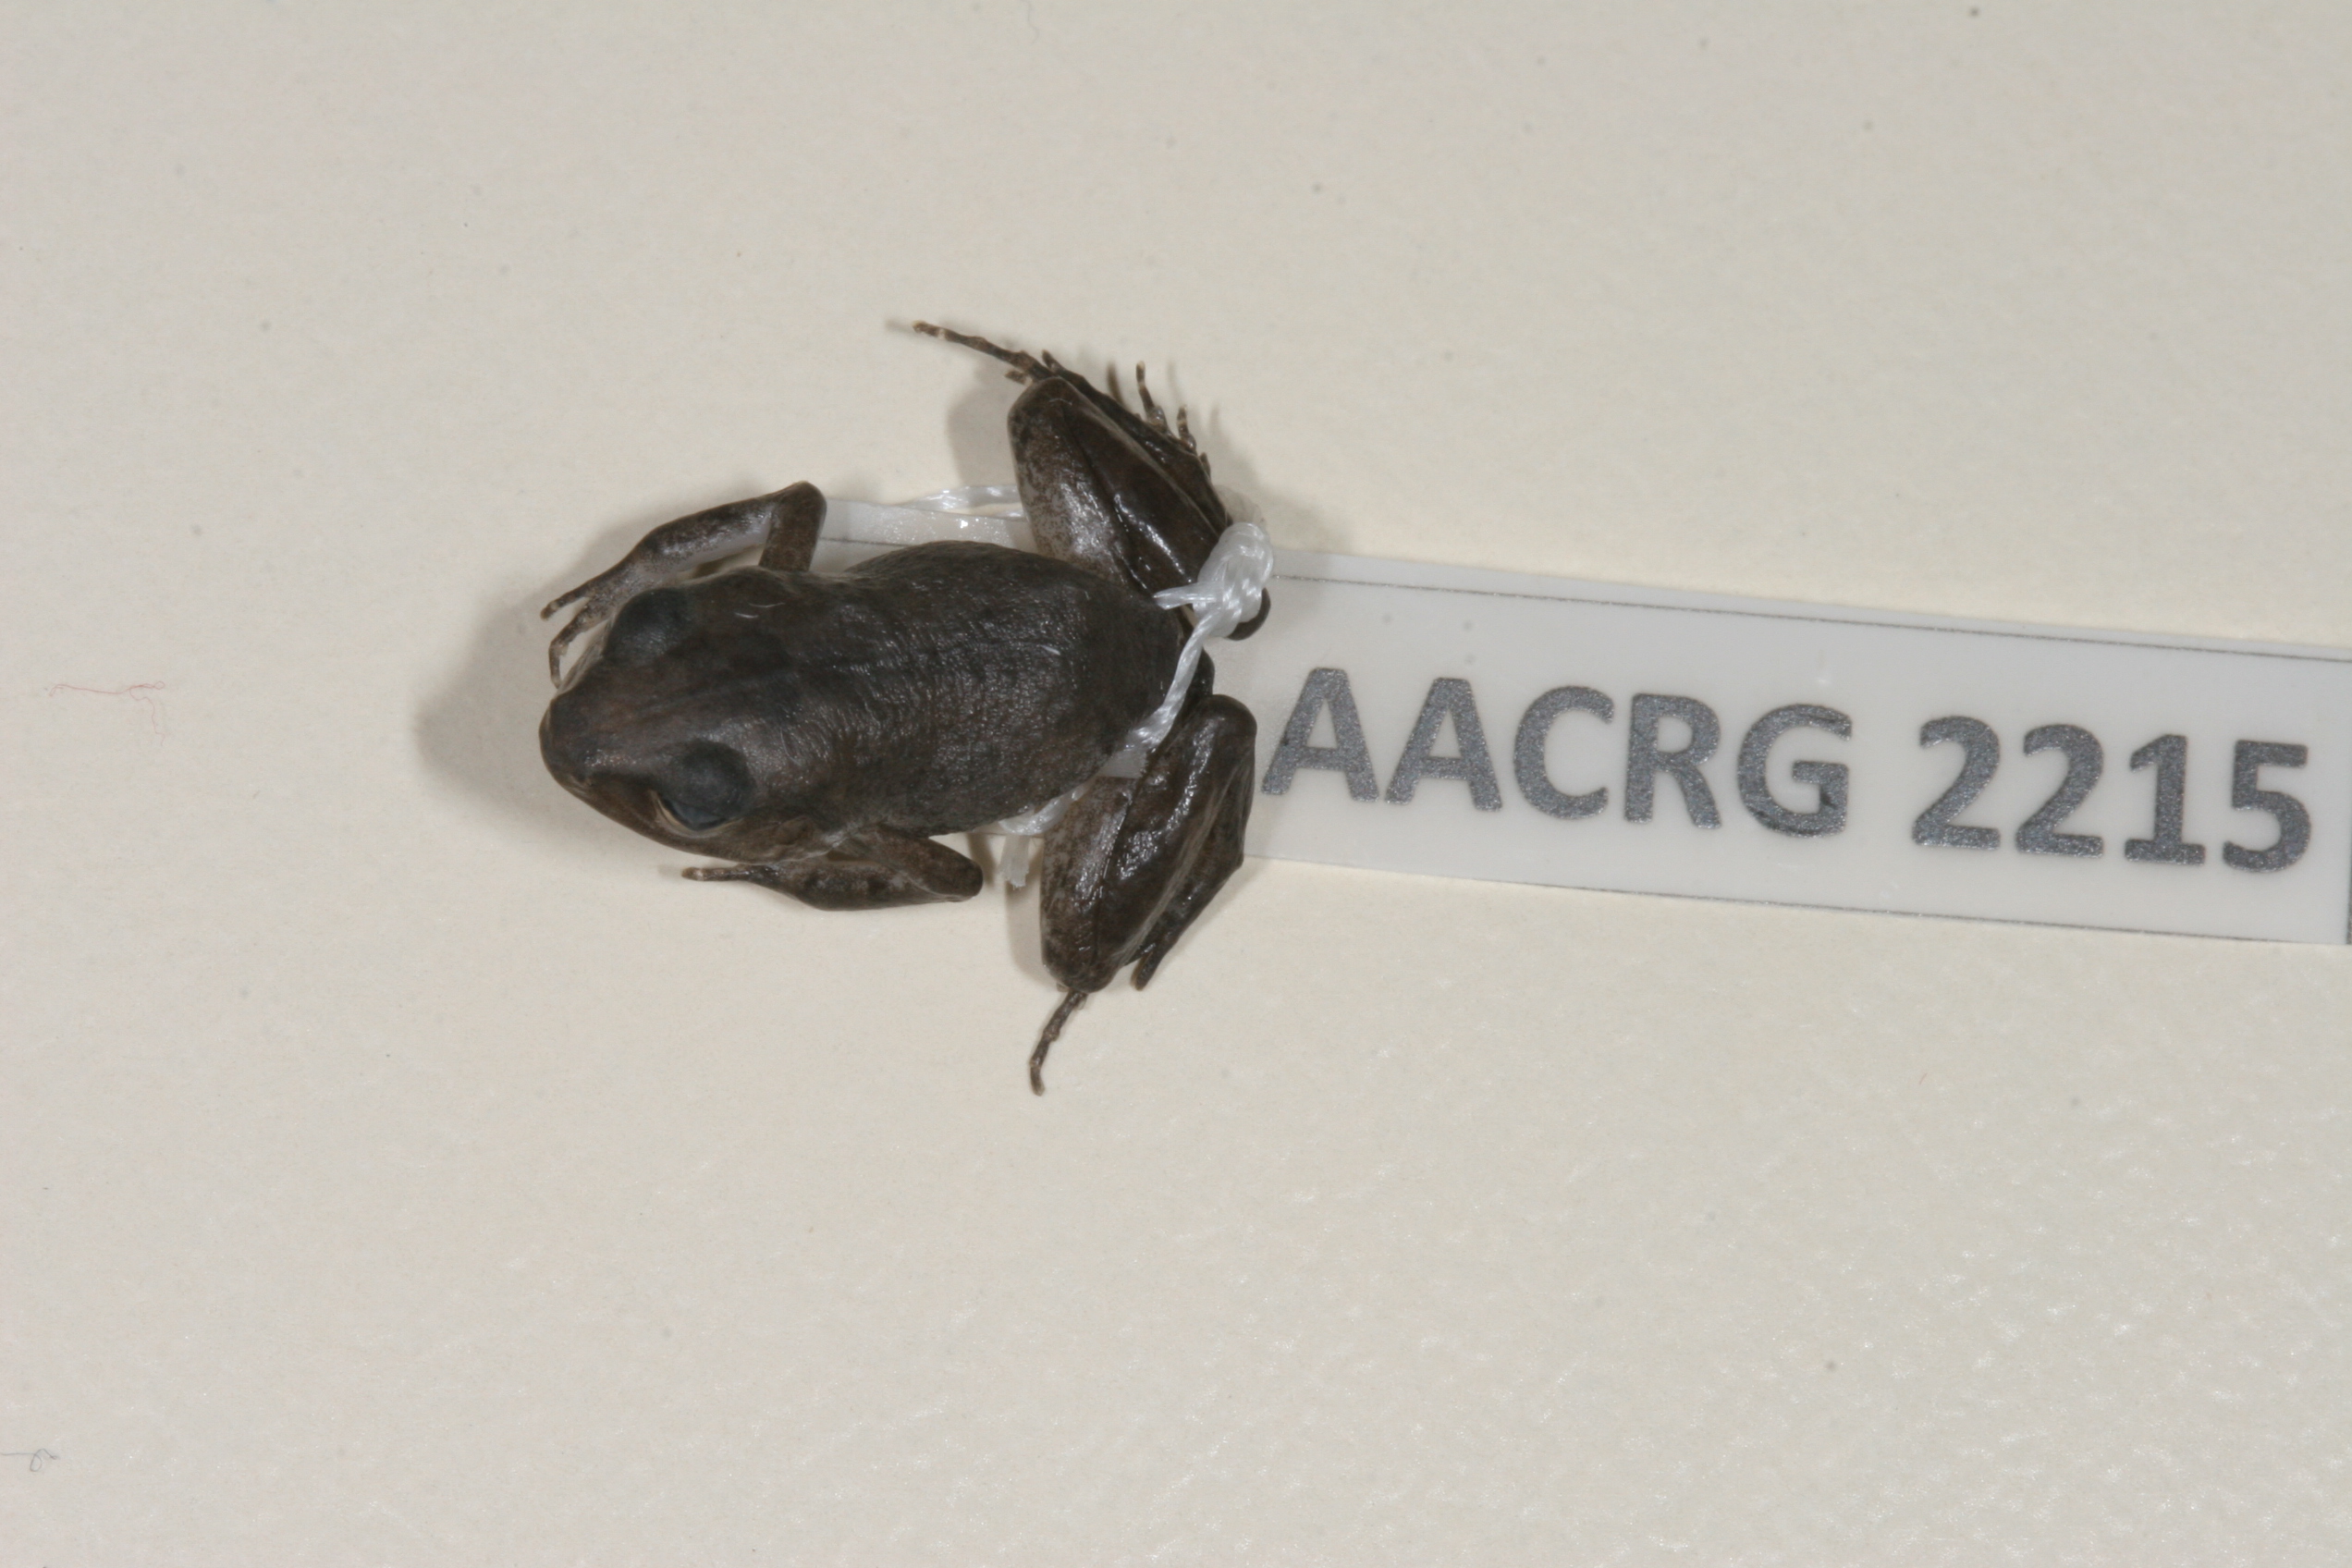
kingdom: Animalia
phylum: Chordata
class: Amphibia
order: Anura
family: Arthroleptidae
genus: Arthroleptis
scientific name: Arthroleptis wahlbergii
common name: Bush squeaker
